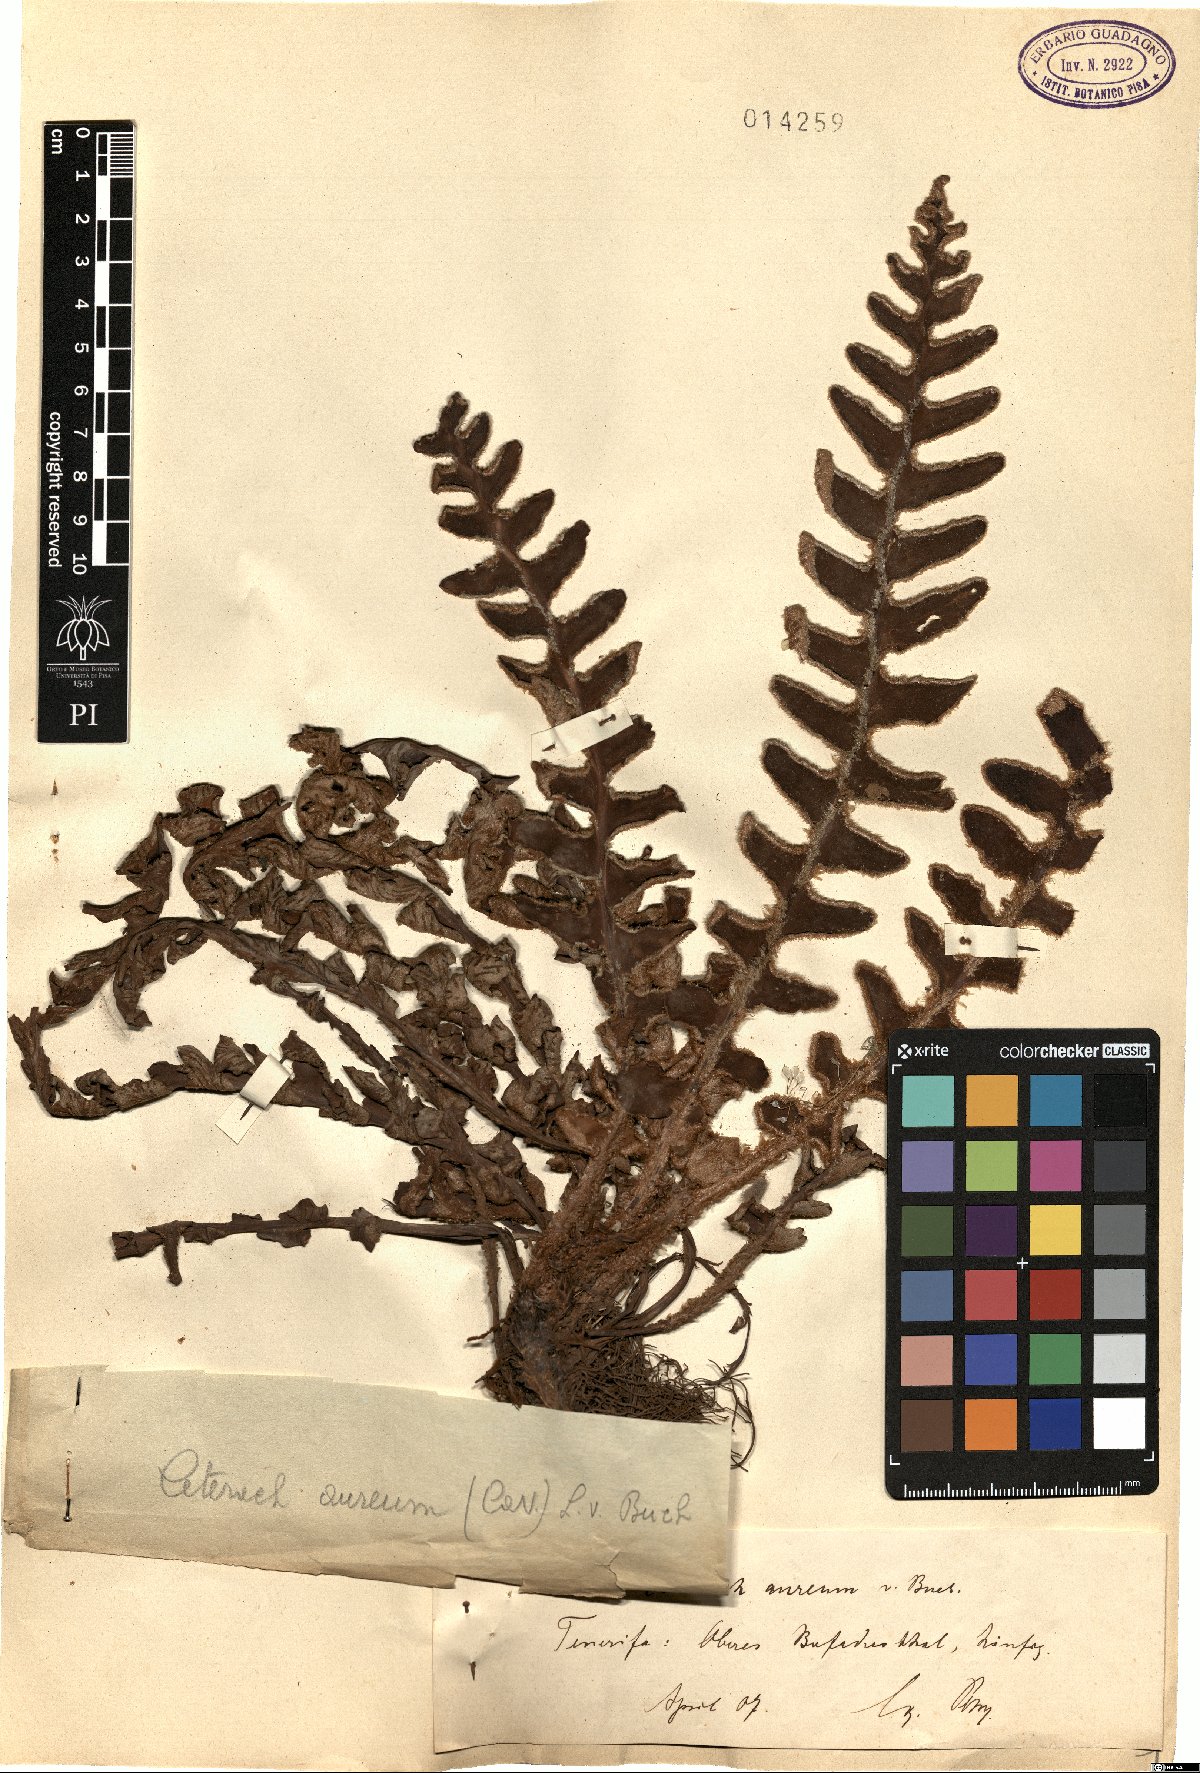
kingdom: Plantae
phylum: Tracheophyta
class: Polypodiopsida
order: Polypodiales
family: Aspleniaceae
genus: Asplenium
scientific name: Asplenium aureum
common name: Golden rustyback fern
